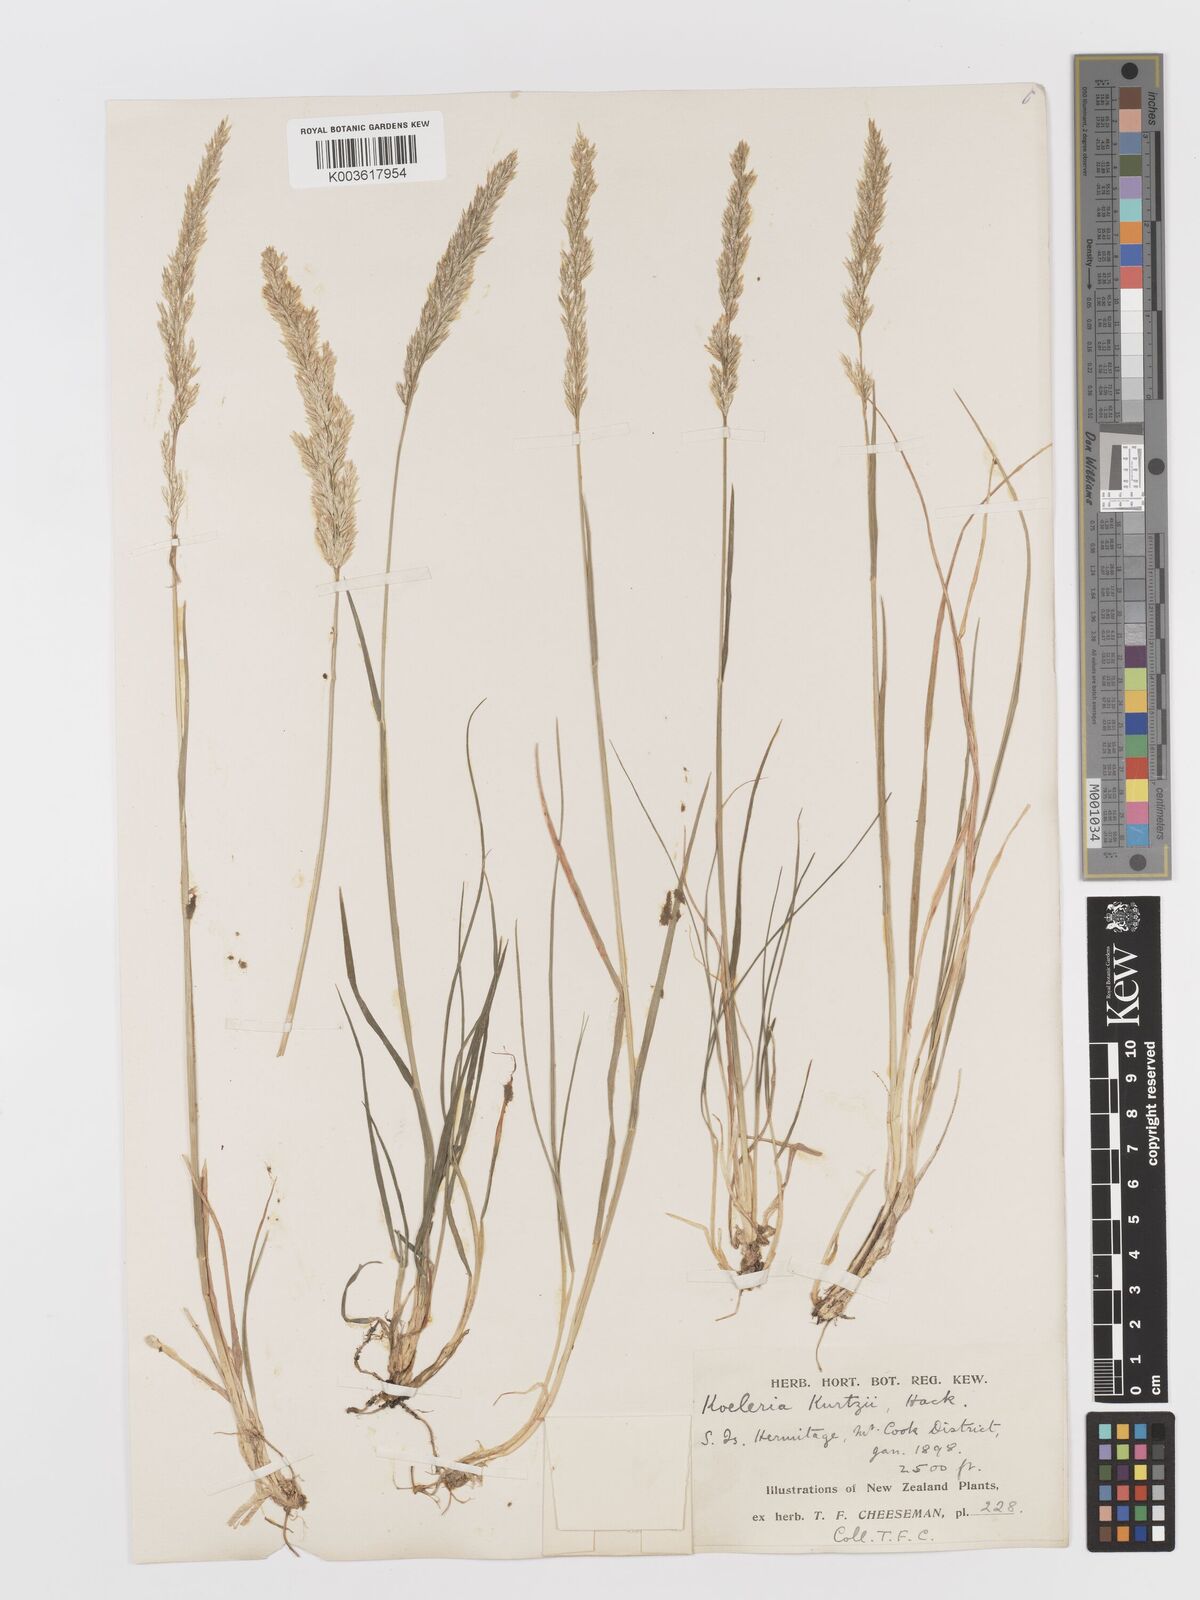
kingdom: Plantae
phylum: Tracheophyta
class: Liliopsida
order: Poales
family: Poaceae
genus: Koeleria
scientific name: Koeleria kurtzii
